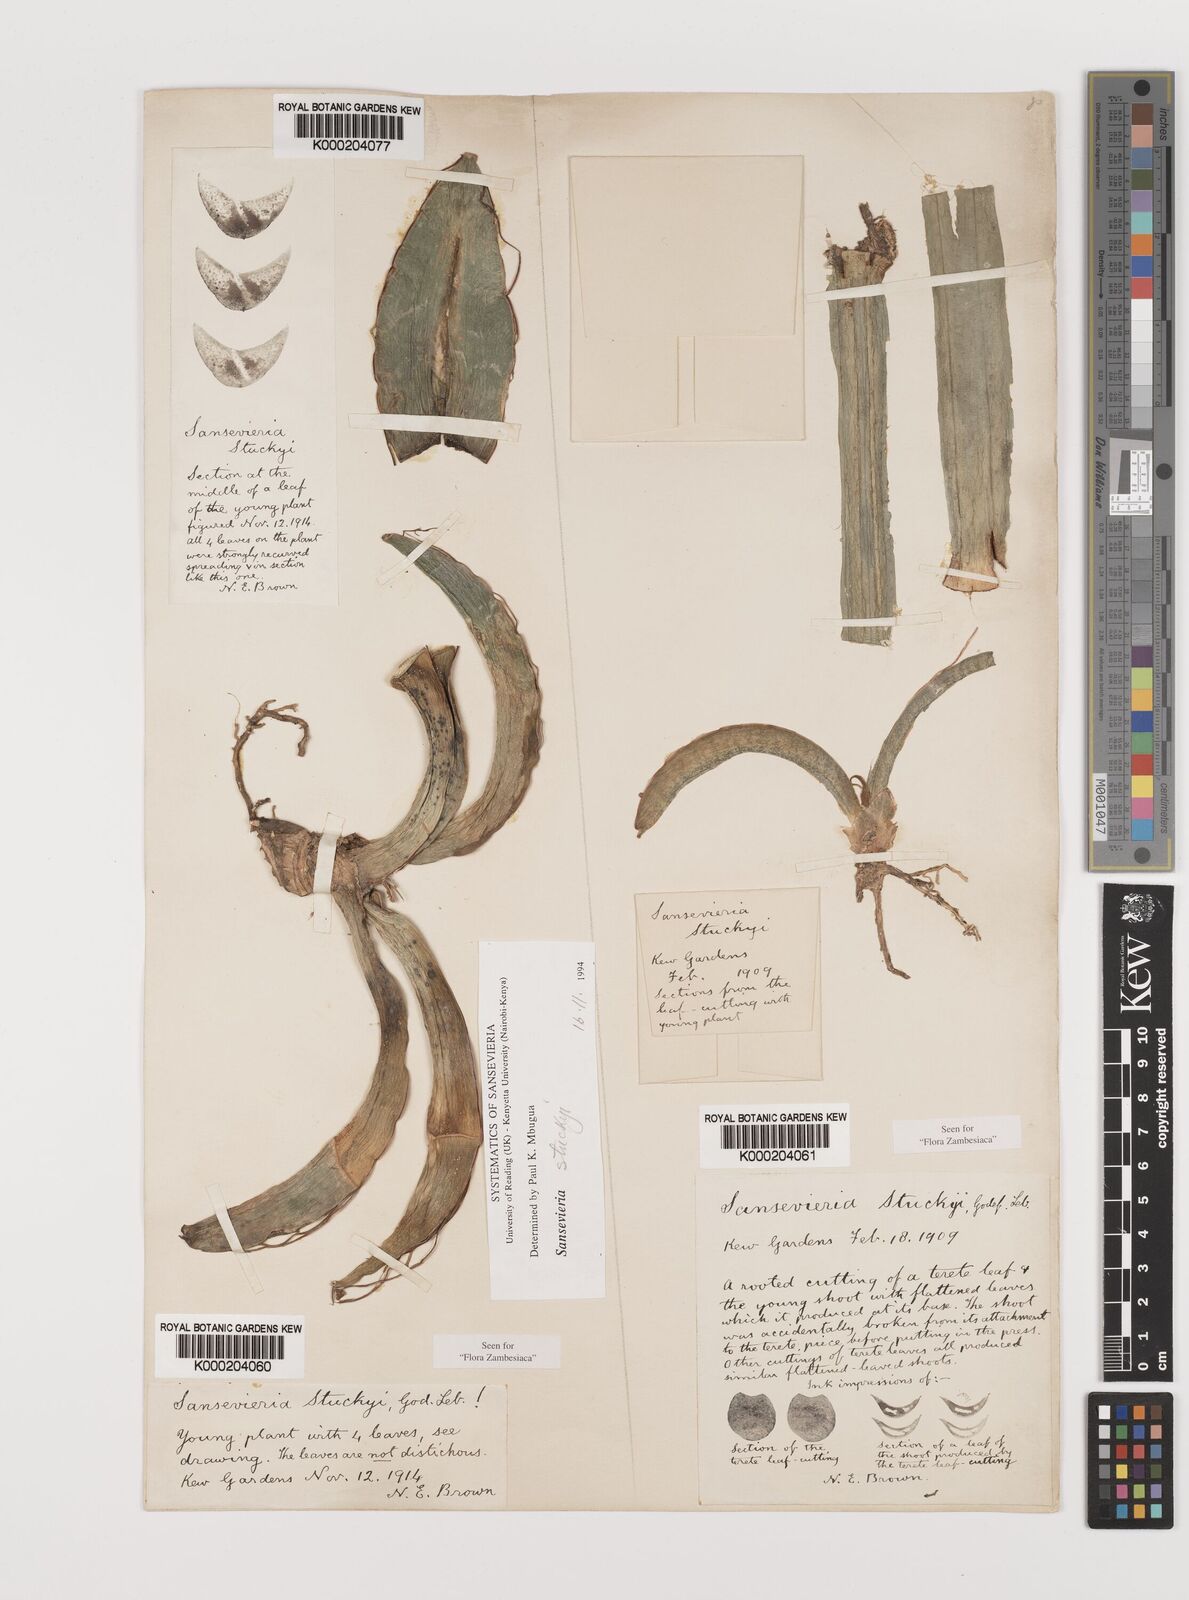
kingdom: Plantae
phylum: Tracheophyta
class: Liliopsida
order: Asparagales
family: Asparagaceae
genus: Dracaena
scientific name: Dracaena stuckyi
